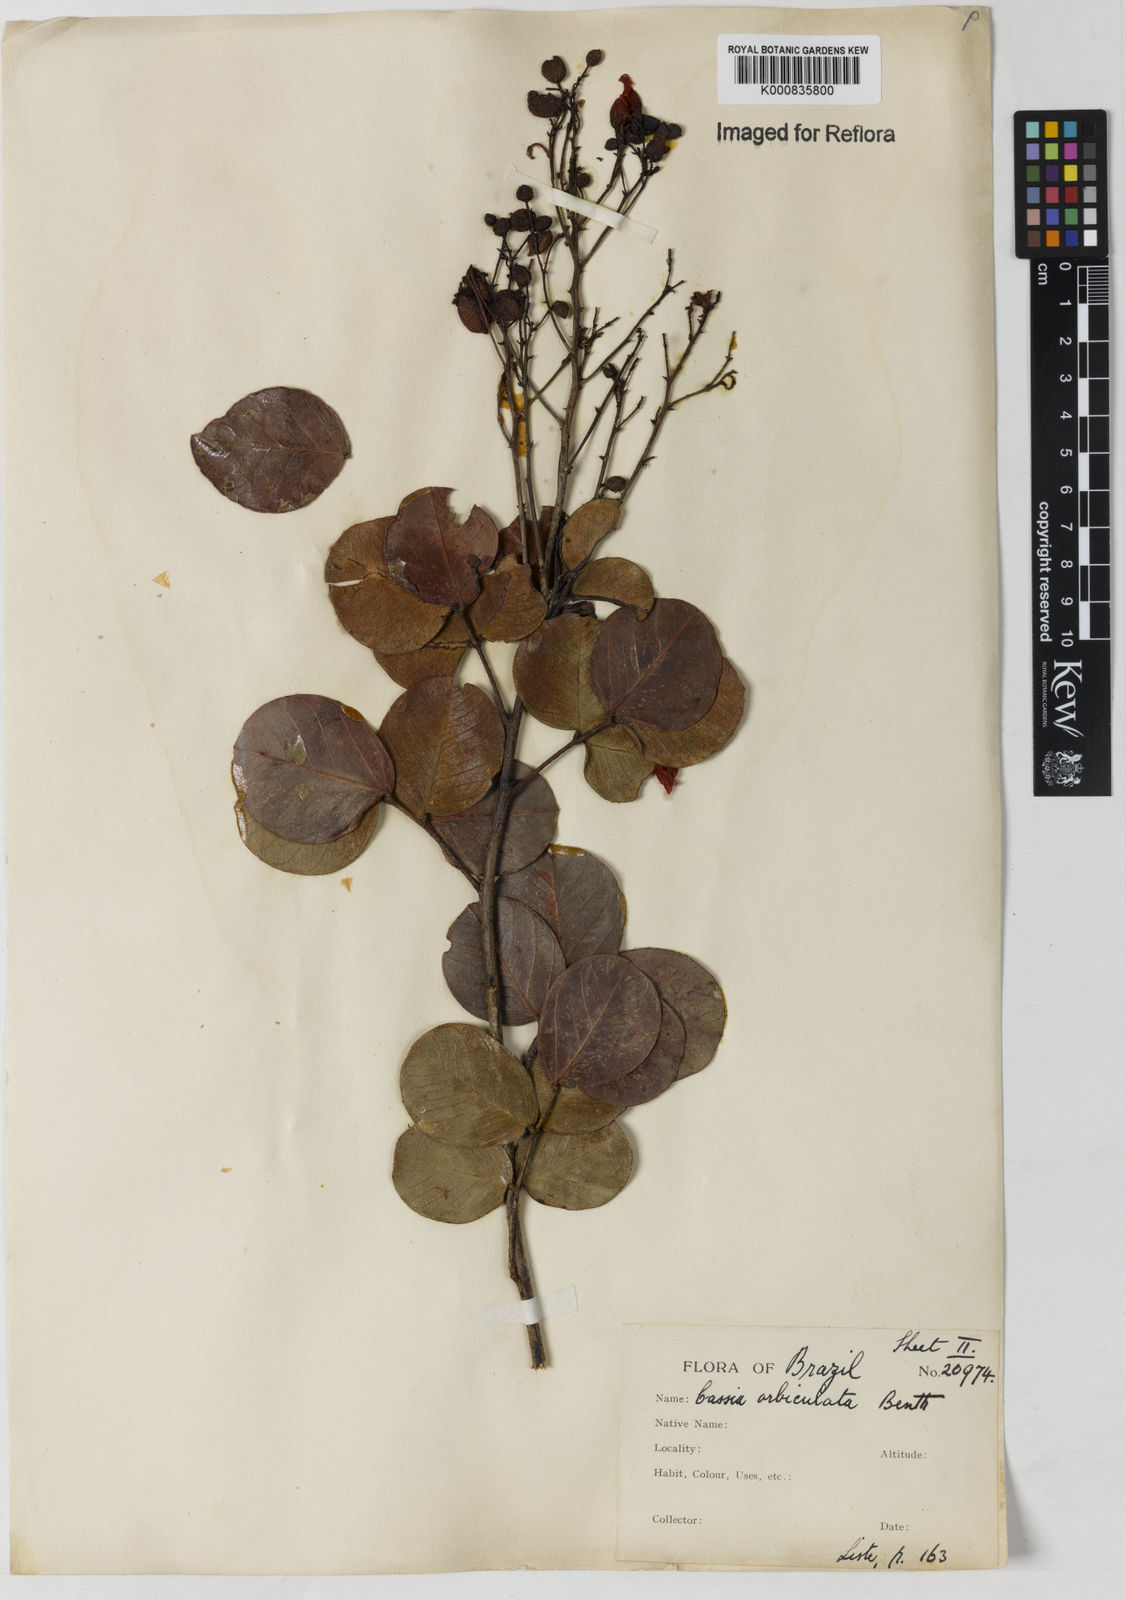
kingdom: Plantae
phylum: Tracheophyta
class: Magnoliopsida
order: Fabales
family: Fabaceae
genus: Chamaecrista
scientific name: Chamaecrista orbiculata
